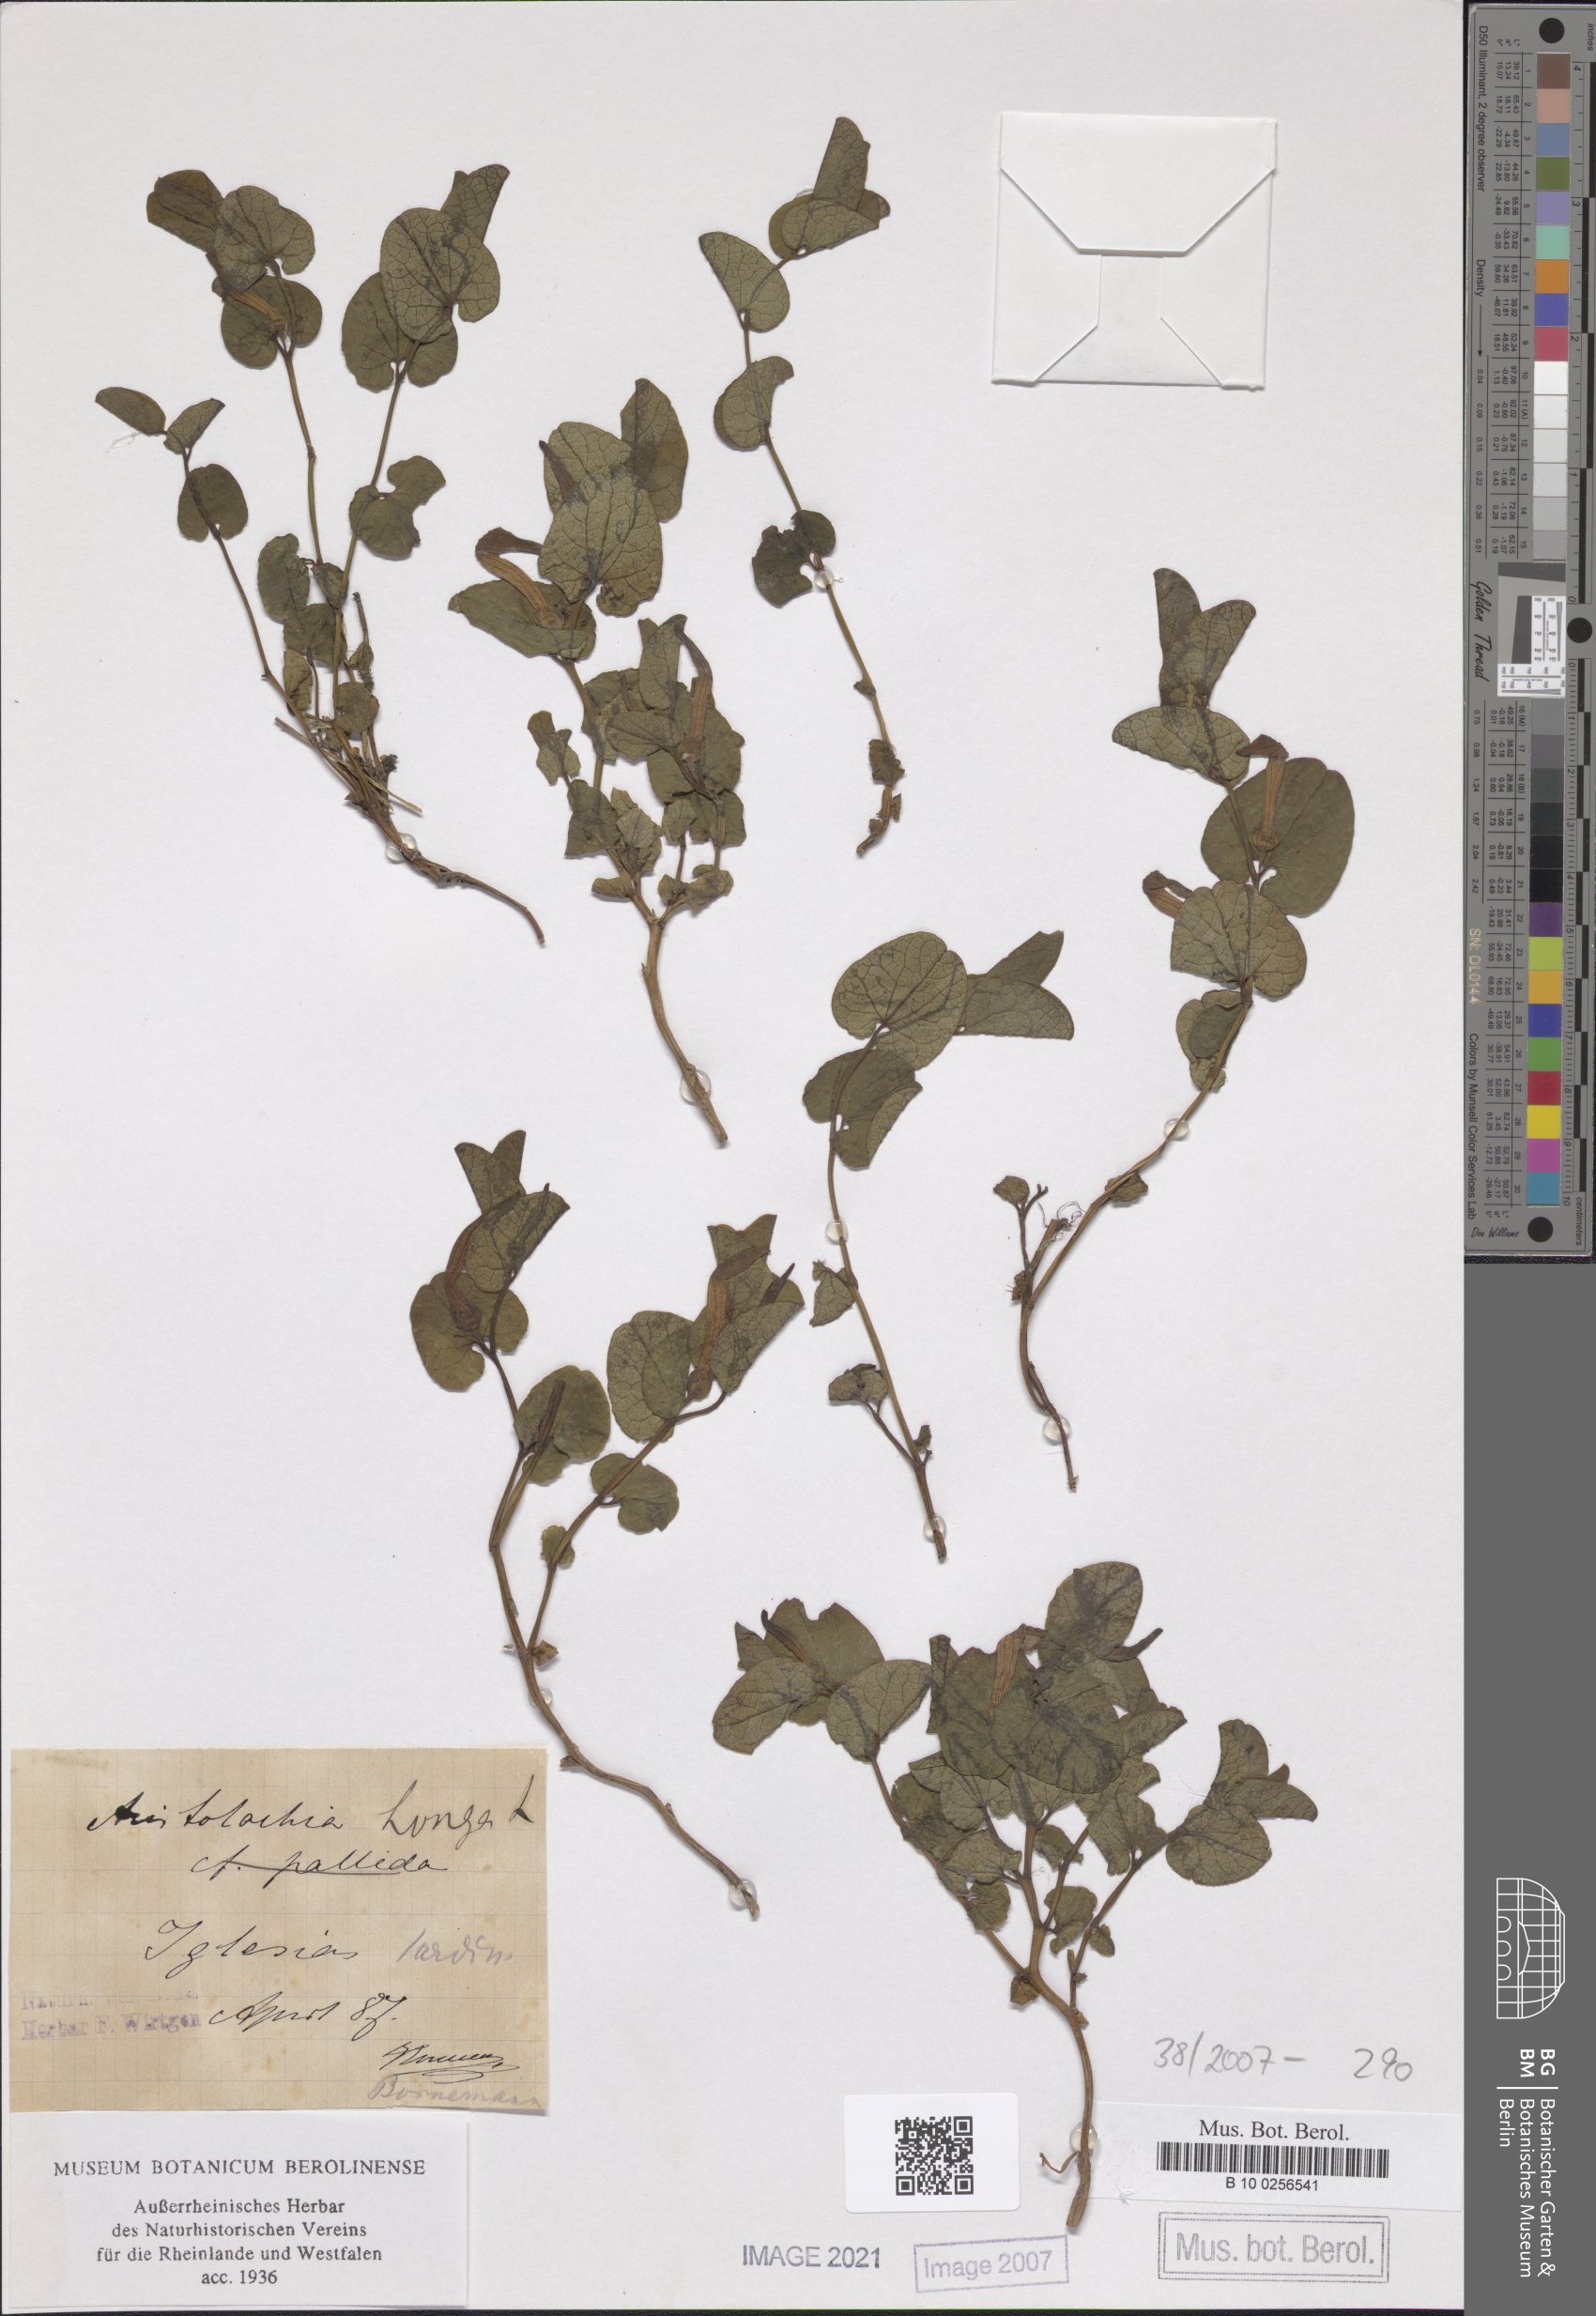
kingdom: Plantae
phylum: Tracheophyta
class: Magnoliopsida
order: Piperales
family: Aristolochiaceae
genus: Aristolochia
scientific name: Aristolochia fontanesii
